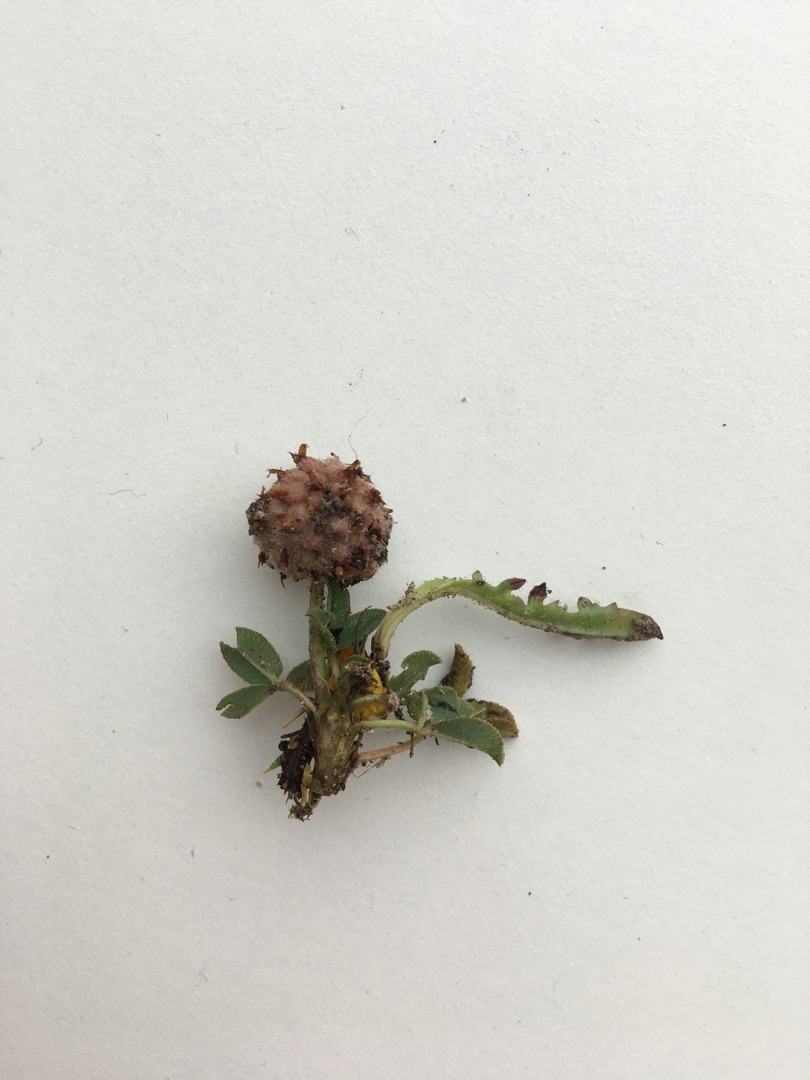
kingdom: Plantae
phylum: Tracheophyta
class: Magnoliopsida
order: Fabales
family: Fabaceae
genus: Trifolium
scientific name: Trifolium fragiferum
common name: Jordbær-kløver
